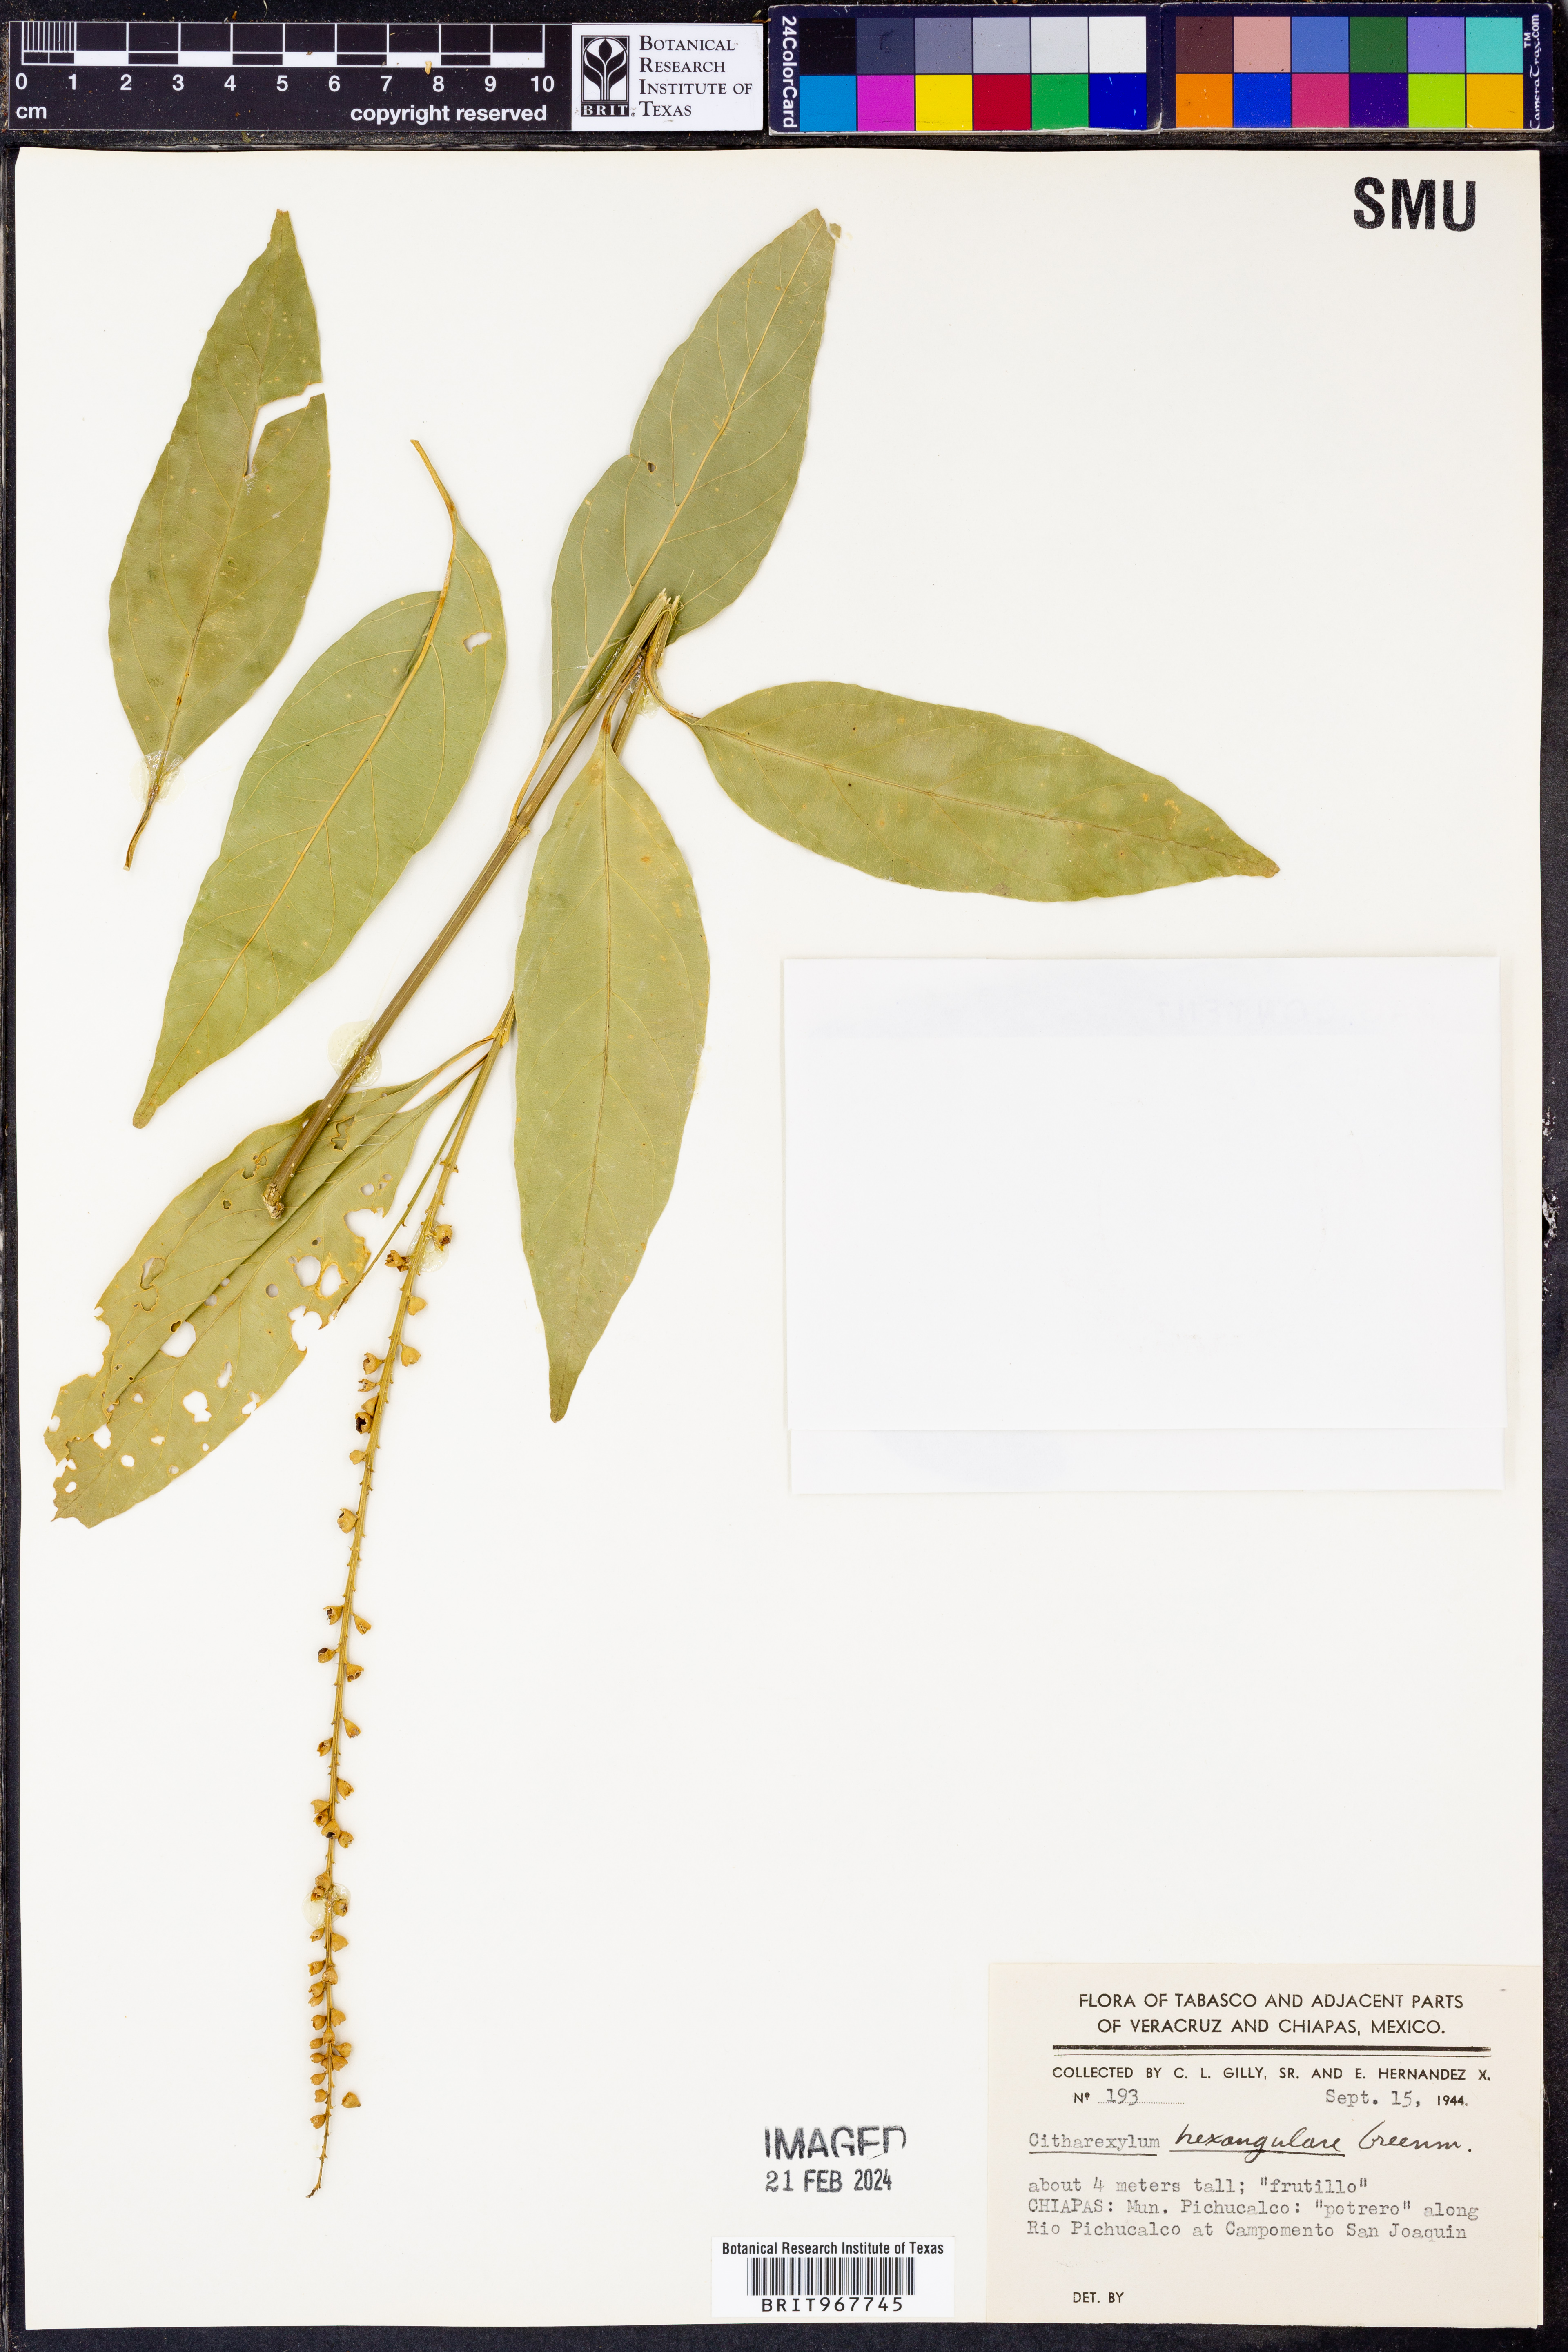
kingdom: Plantae
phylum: Tracheophyta
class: Magnoliopsida
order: Lamiales
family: Verbenaceae
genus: Citharexylum
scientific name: Citharexylum
